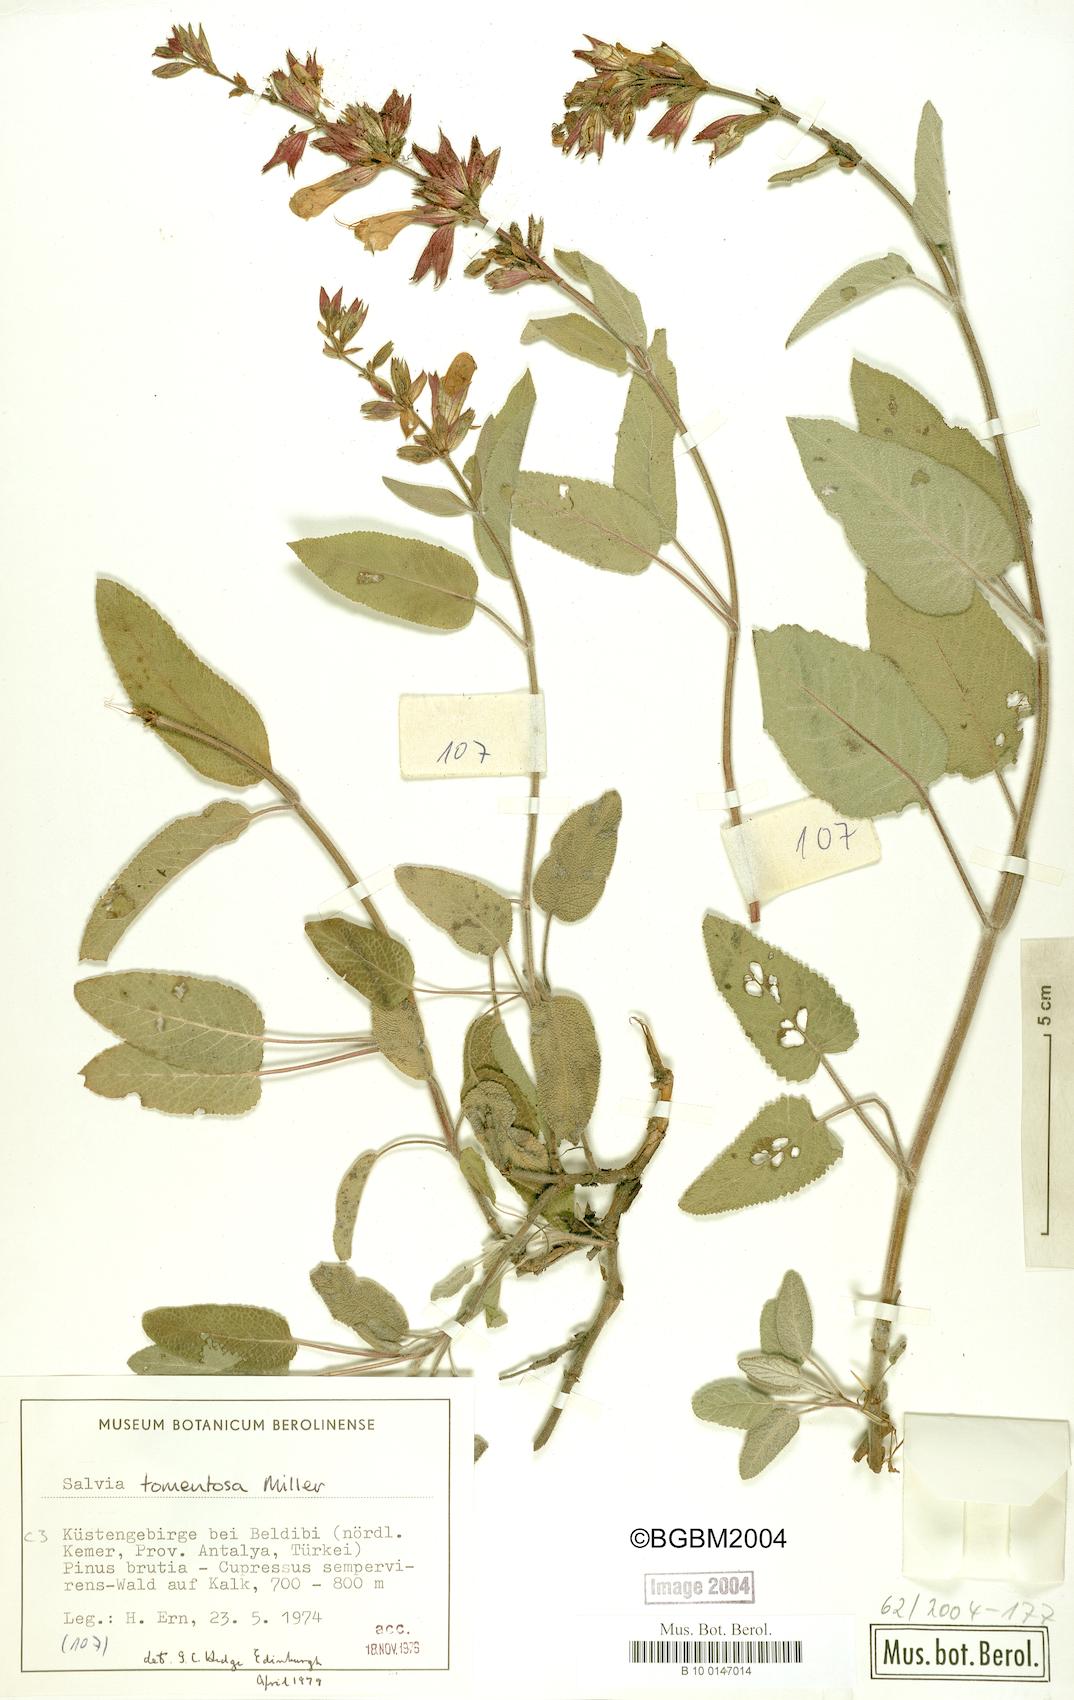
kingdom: Plantae
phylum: Tracheophyta
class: Magnoliopsida
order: Lamiales
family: Lamiaceae
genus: Salvia
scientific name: Salvia tomentosa
